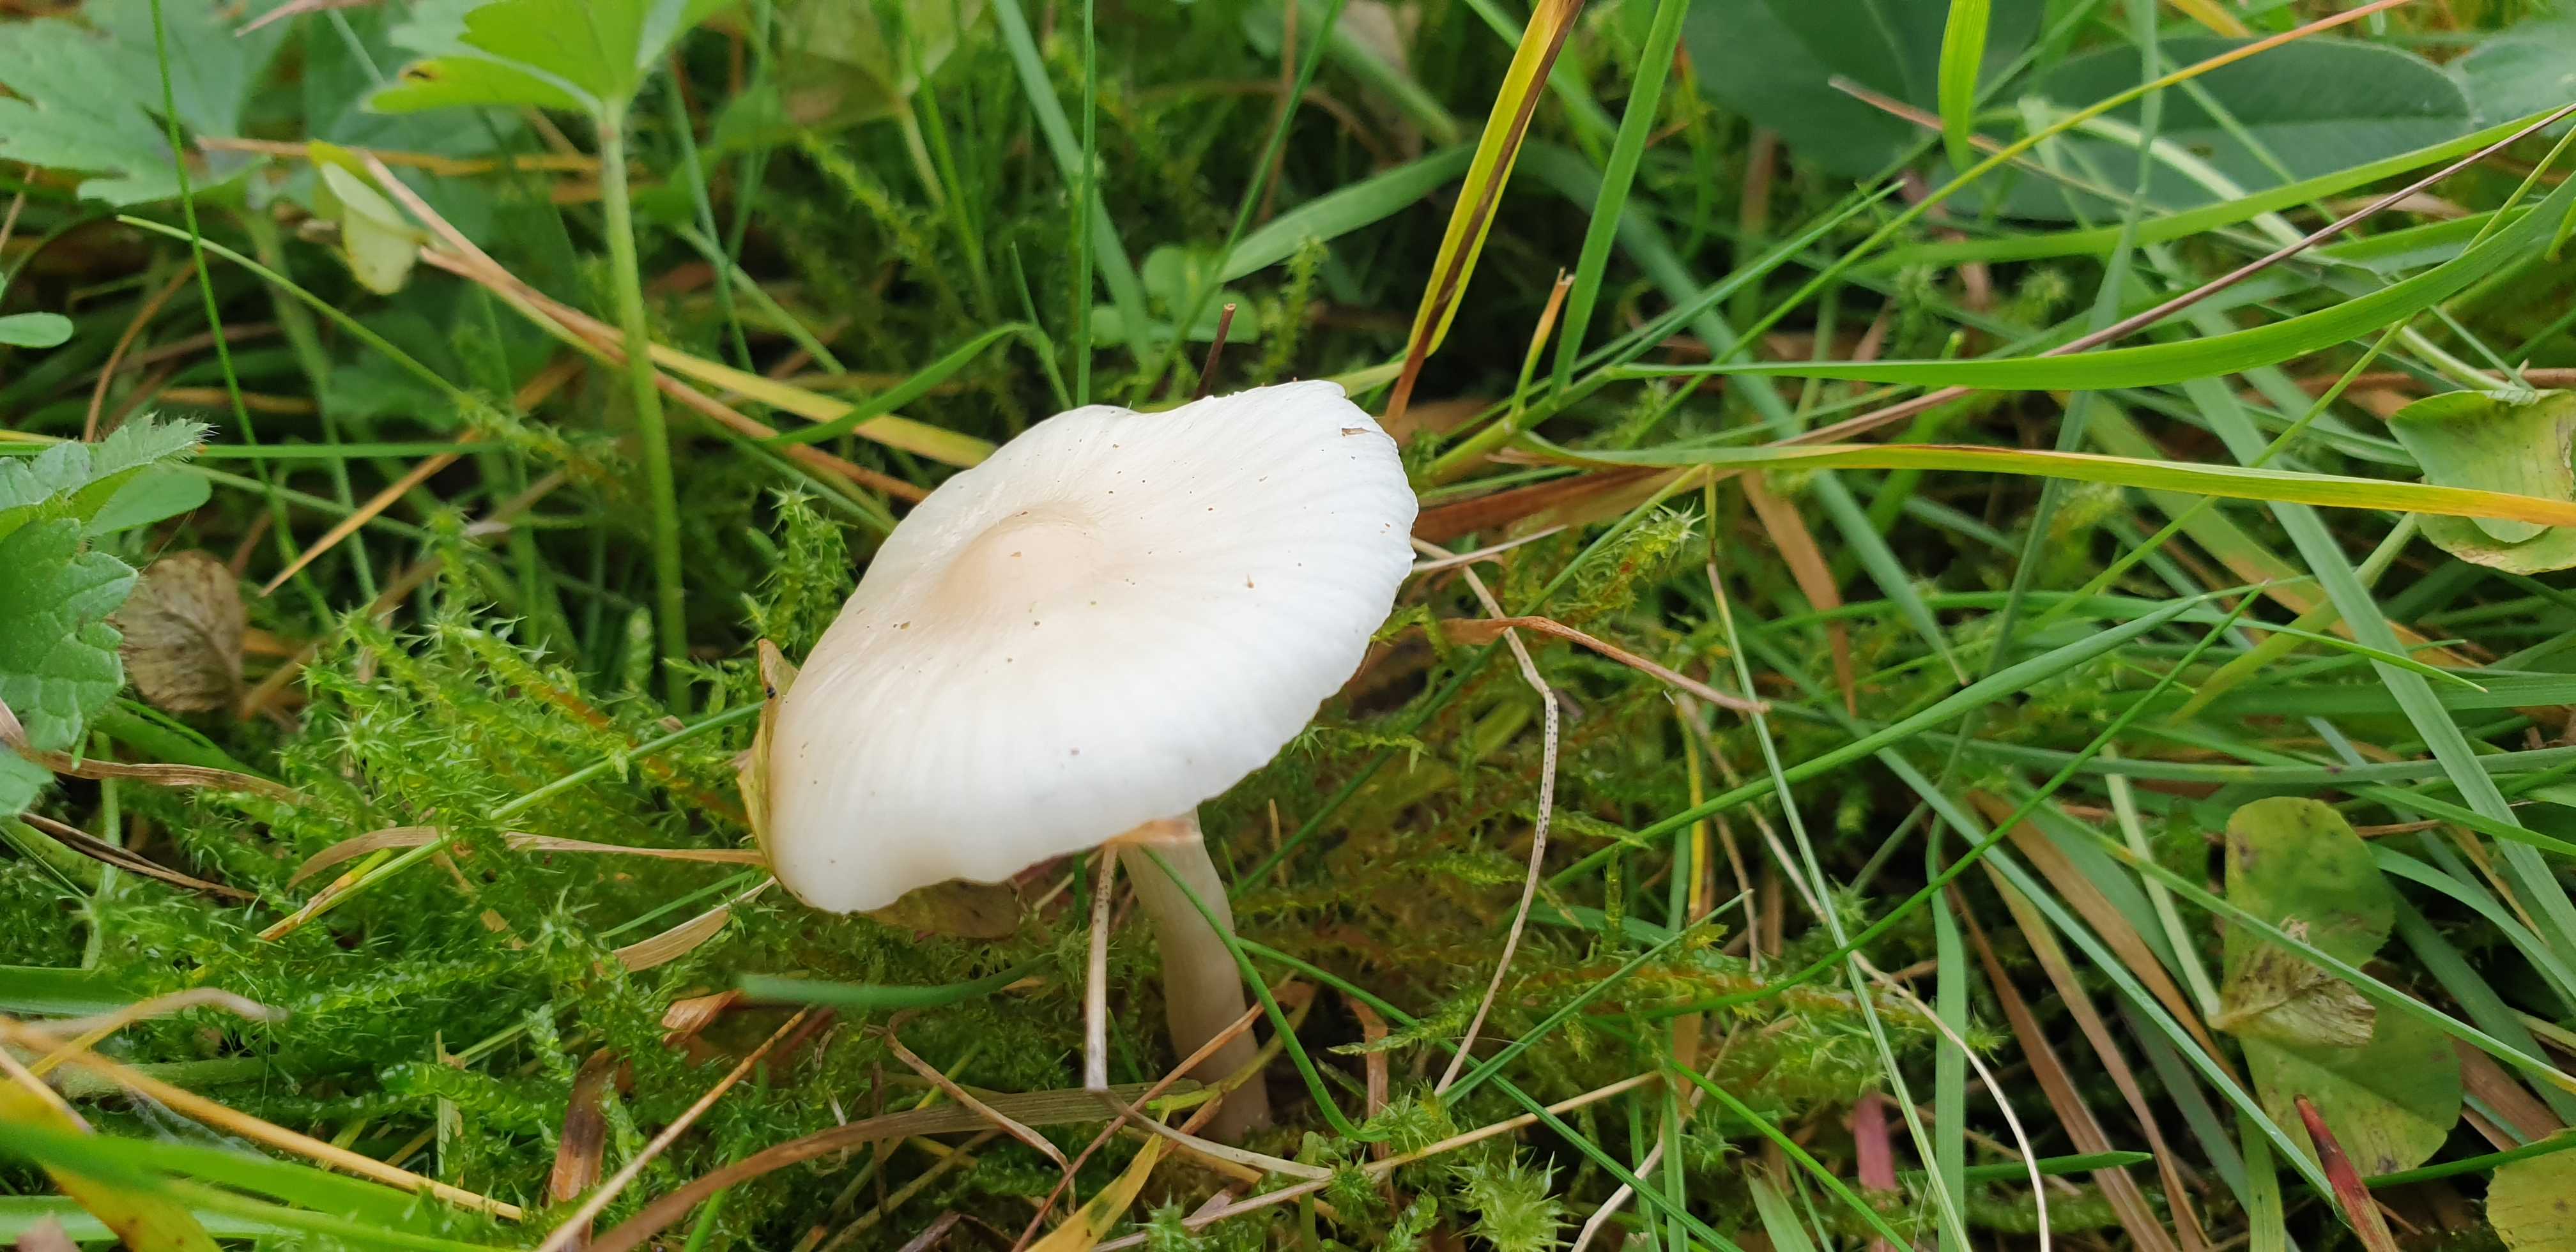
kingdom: Fungi
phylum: Basidiomycota
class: Agaricomycetes
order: Agaricales
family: Hygrophoraceae
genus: Cuphophyllus
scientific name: Cuphophyllus virgineus
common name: snehvid vokshat
